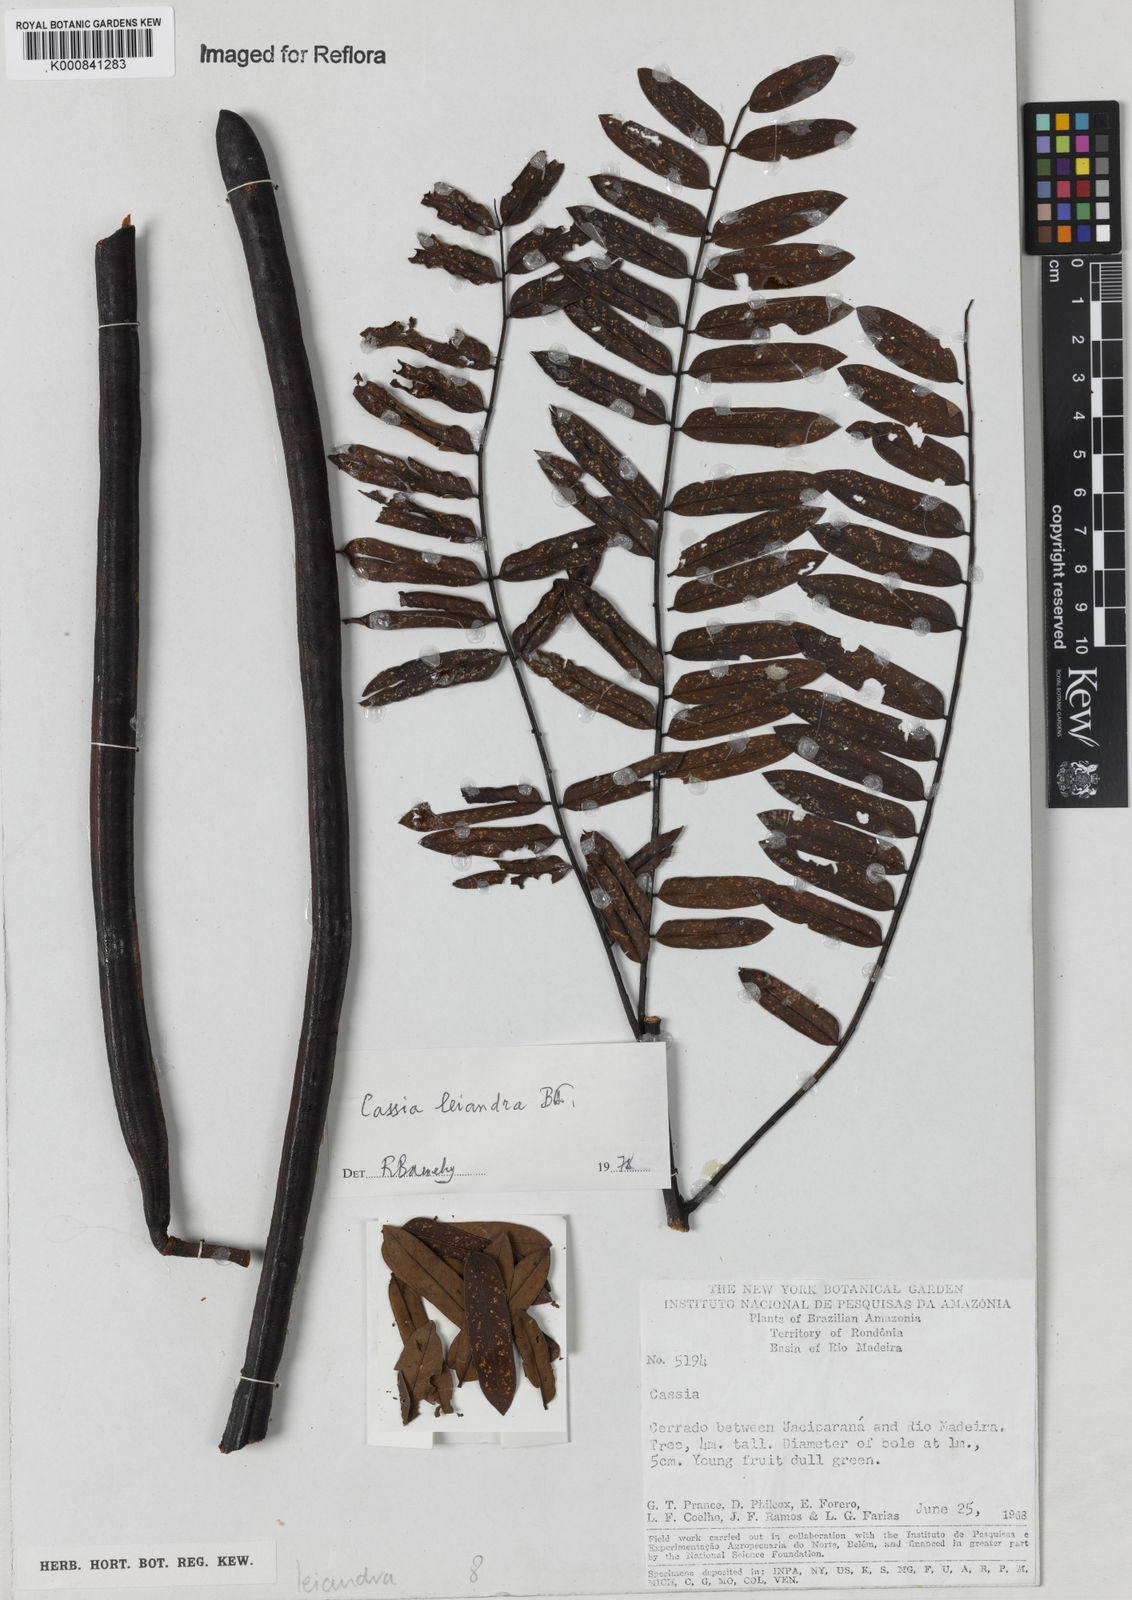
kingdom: Plantae
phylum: Tracheophyta
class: Magnoliopsida
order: Fabales
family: Fabaceae
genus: Cassia
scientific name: Cassia leiandra
